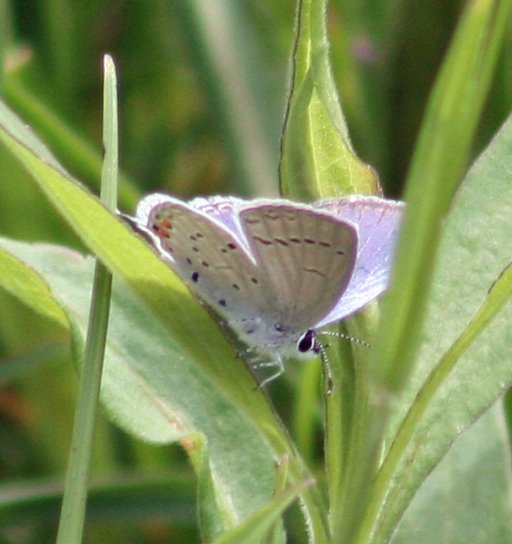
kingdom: Animalia
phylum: Arthropoda
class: Insecta
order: Lepidoptera
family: Lycaenidae
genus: Elkalyce
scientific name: Elkalyce comyntas
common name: Eastern Tailed-Blue
